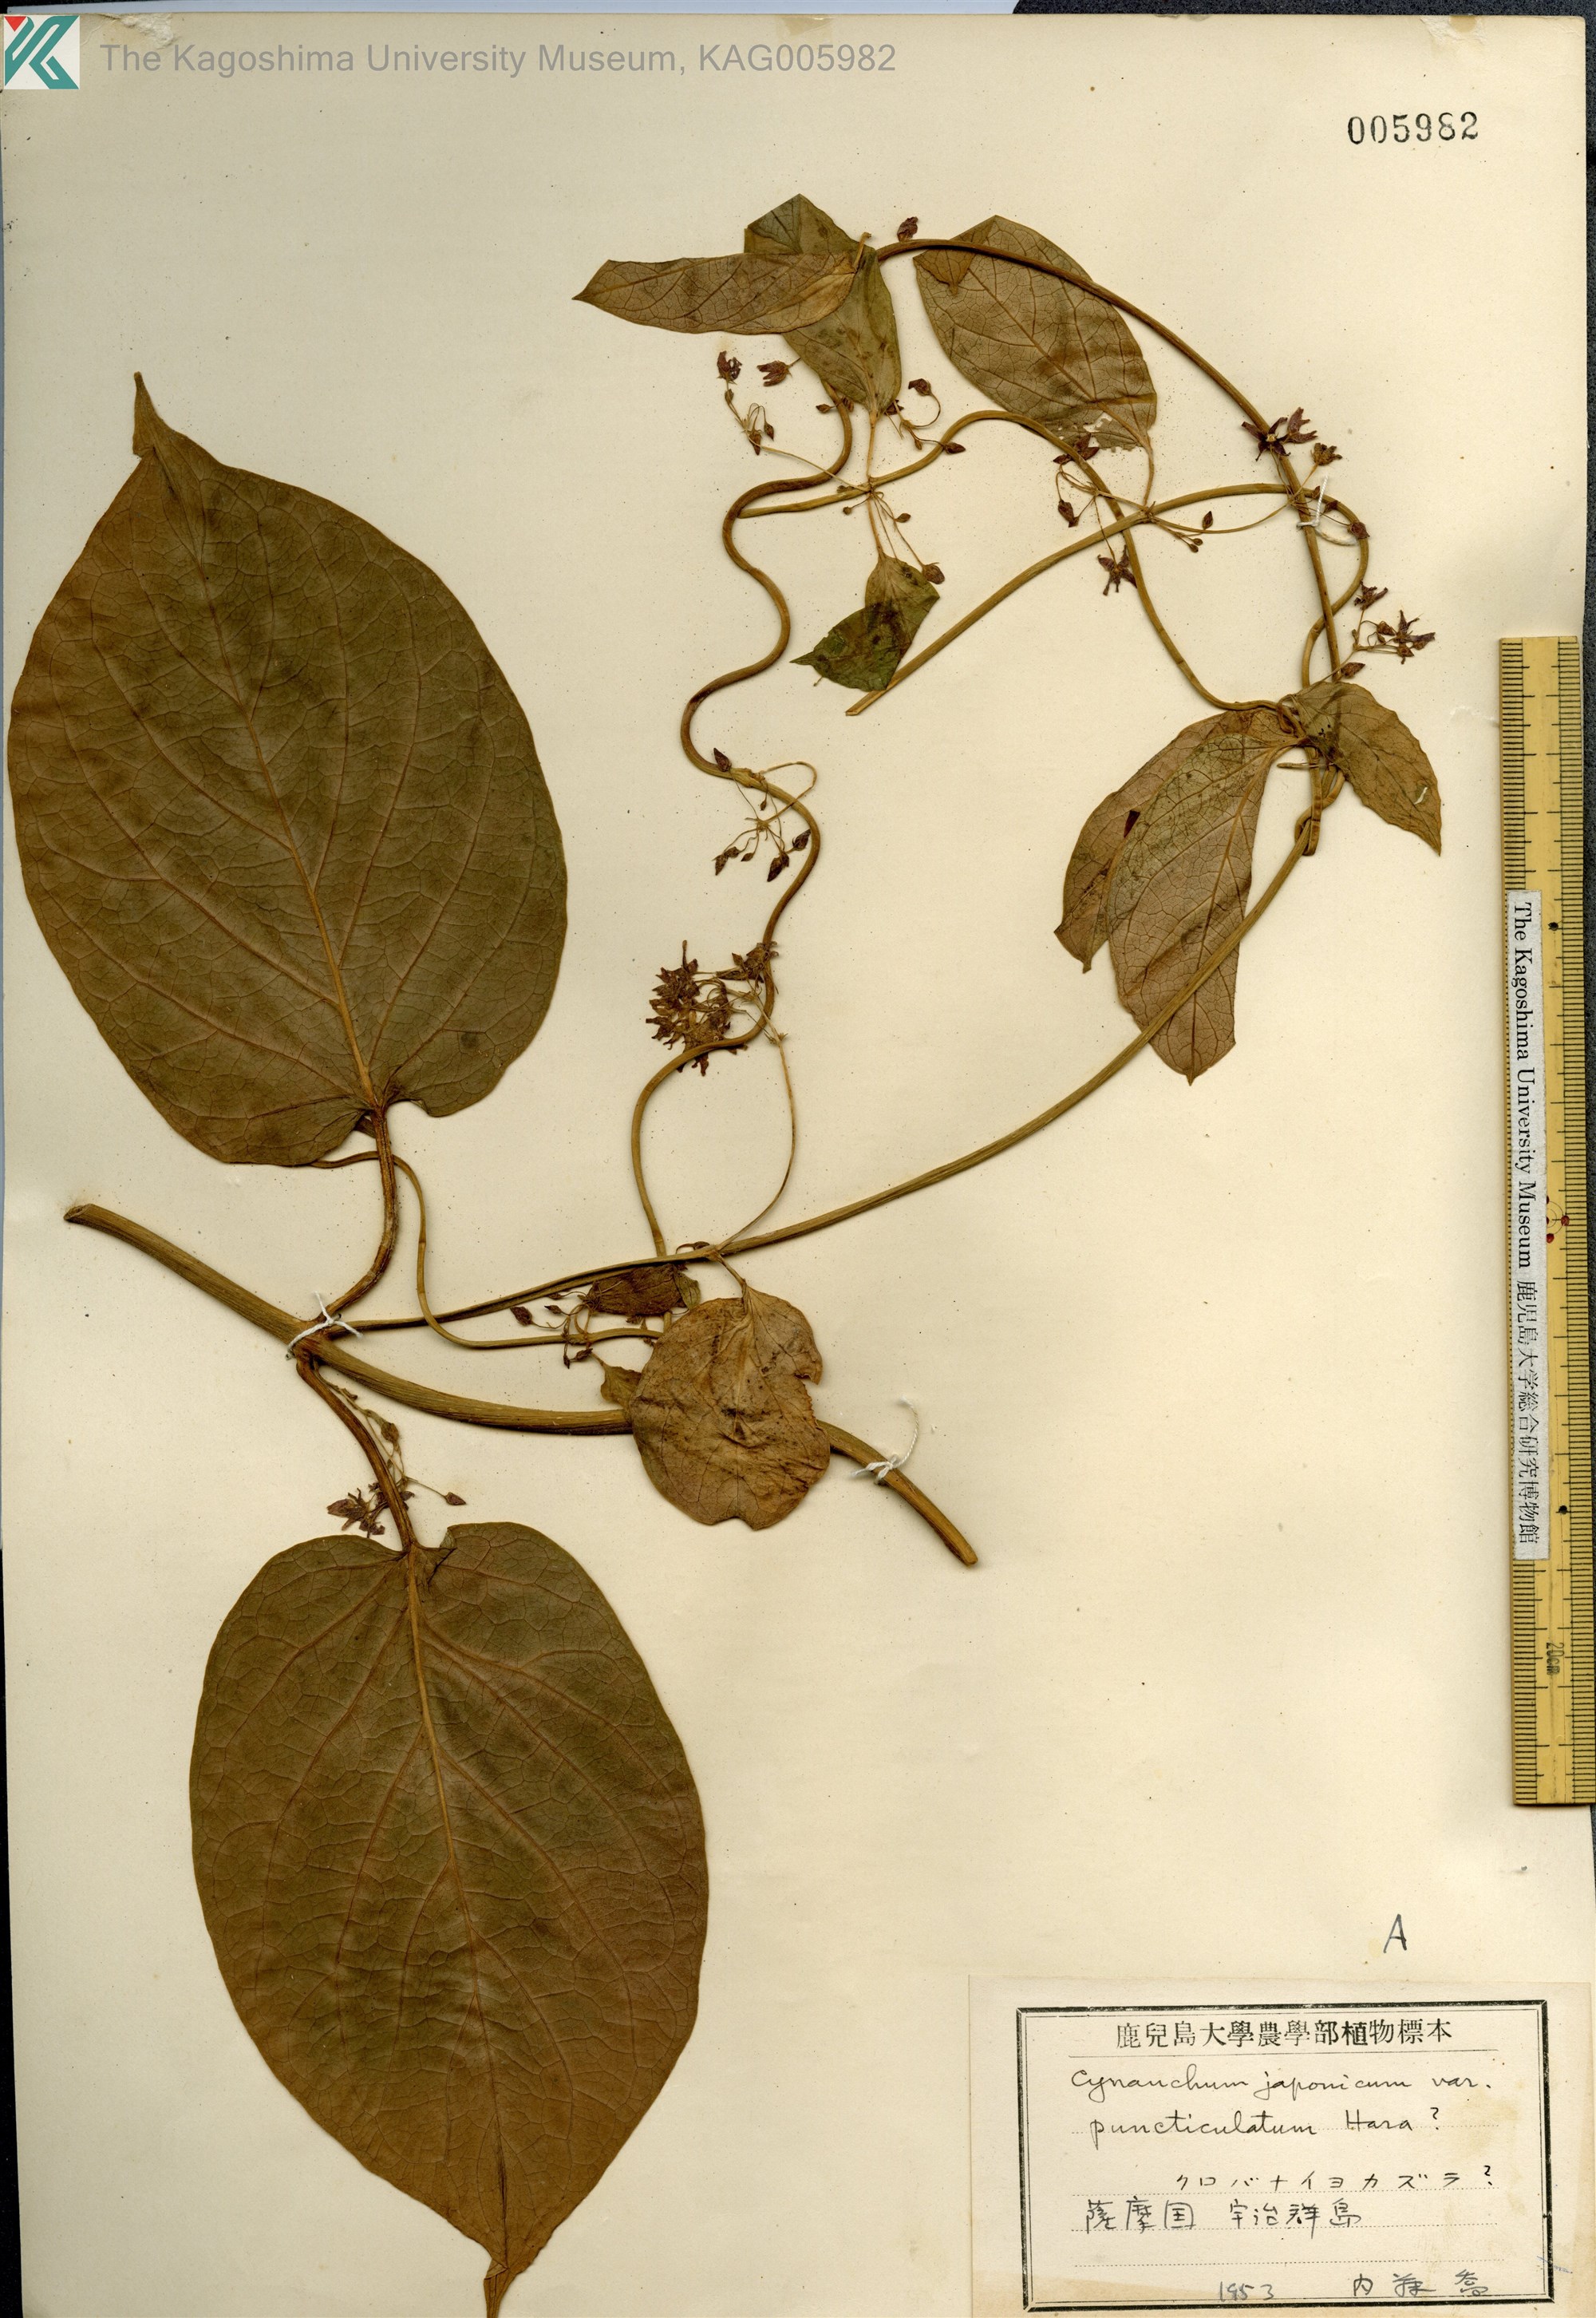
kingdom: Plantae
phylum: Tracheophyta
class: Magnoliopsida
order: Gentianales
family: Apocynaceae
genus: Vincetoxicum
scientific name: Vincetoxicum japonicum
